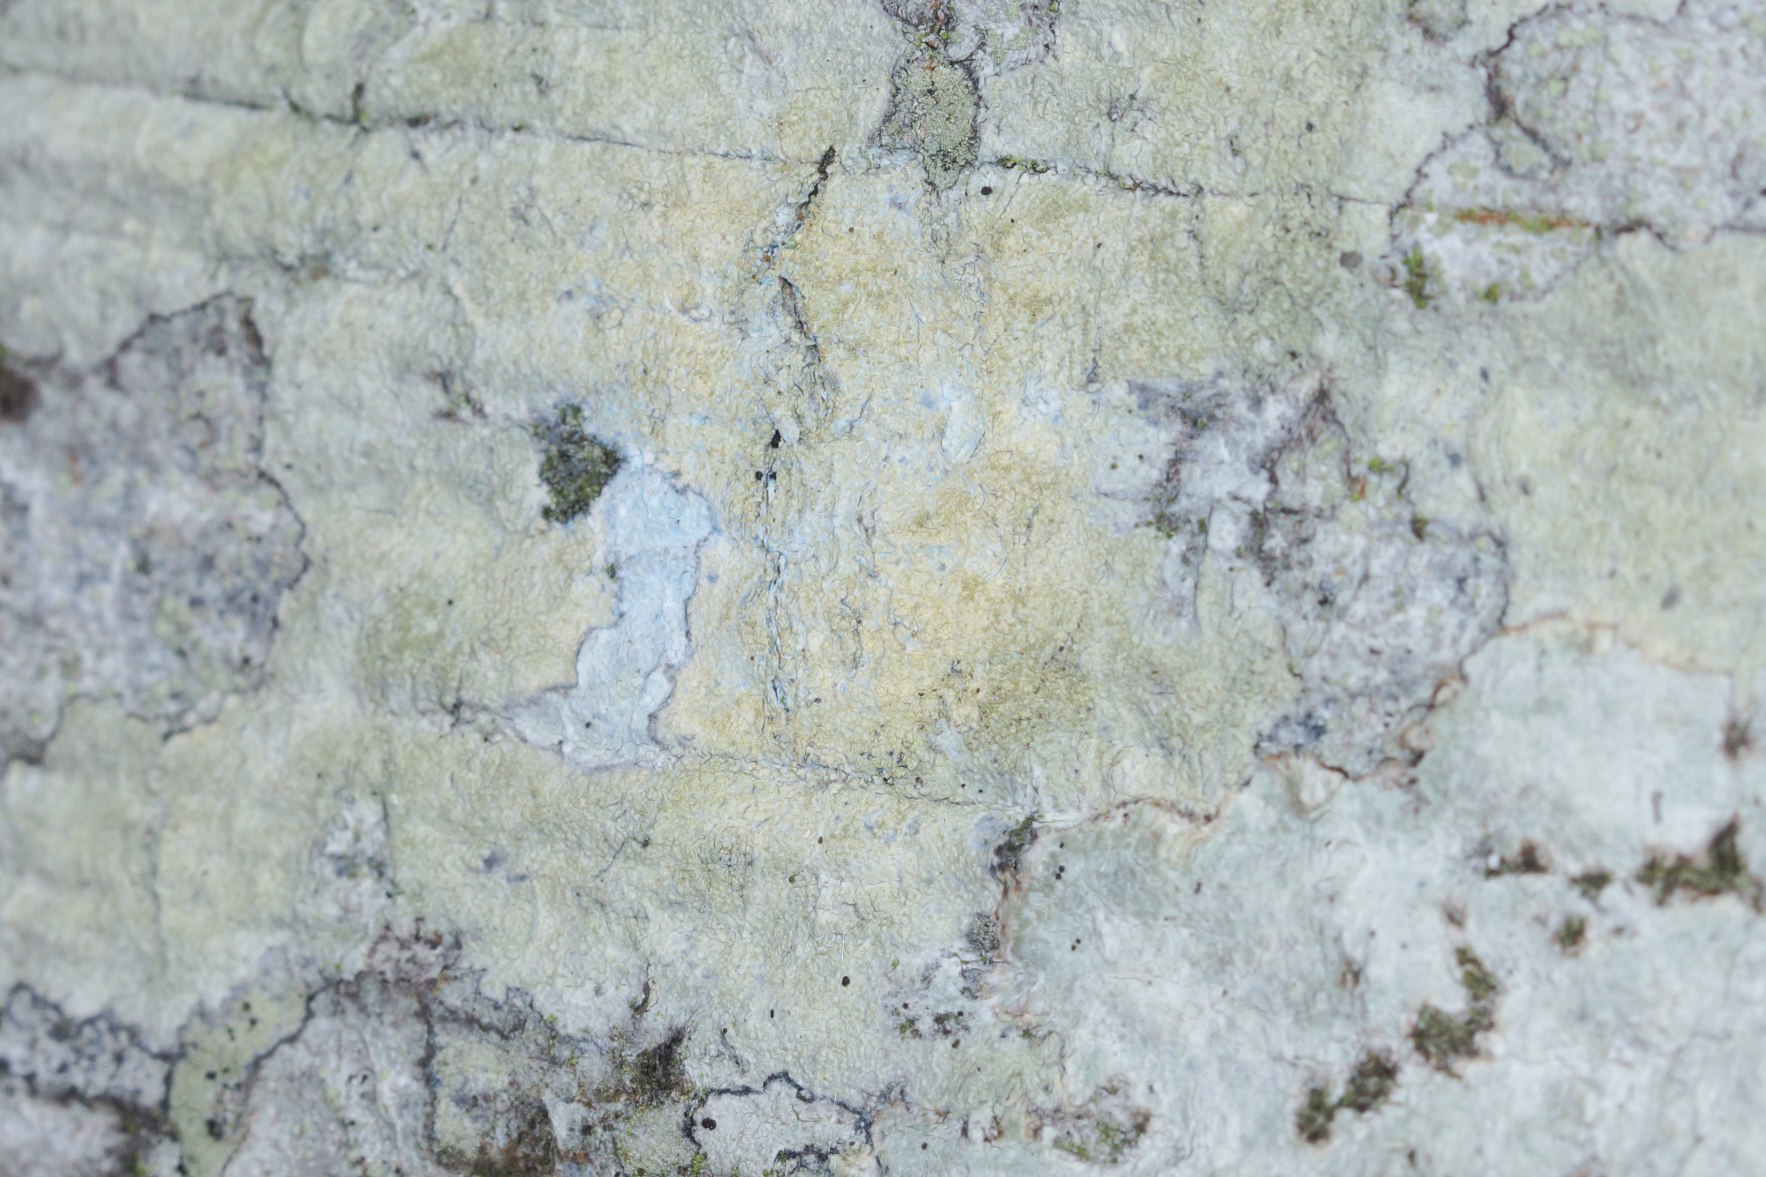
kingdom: Fungi
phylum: Ascomycota
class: Lecanoromycetes
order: Pertusariales
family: Pertusariaceae
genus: Pertusaria
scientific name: Pertusaria flavida
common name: Gul prikvortelav
